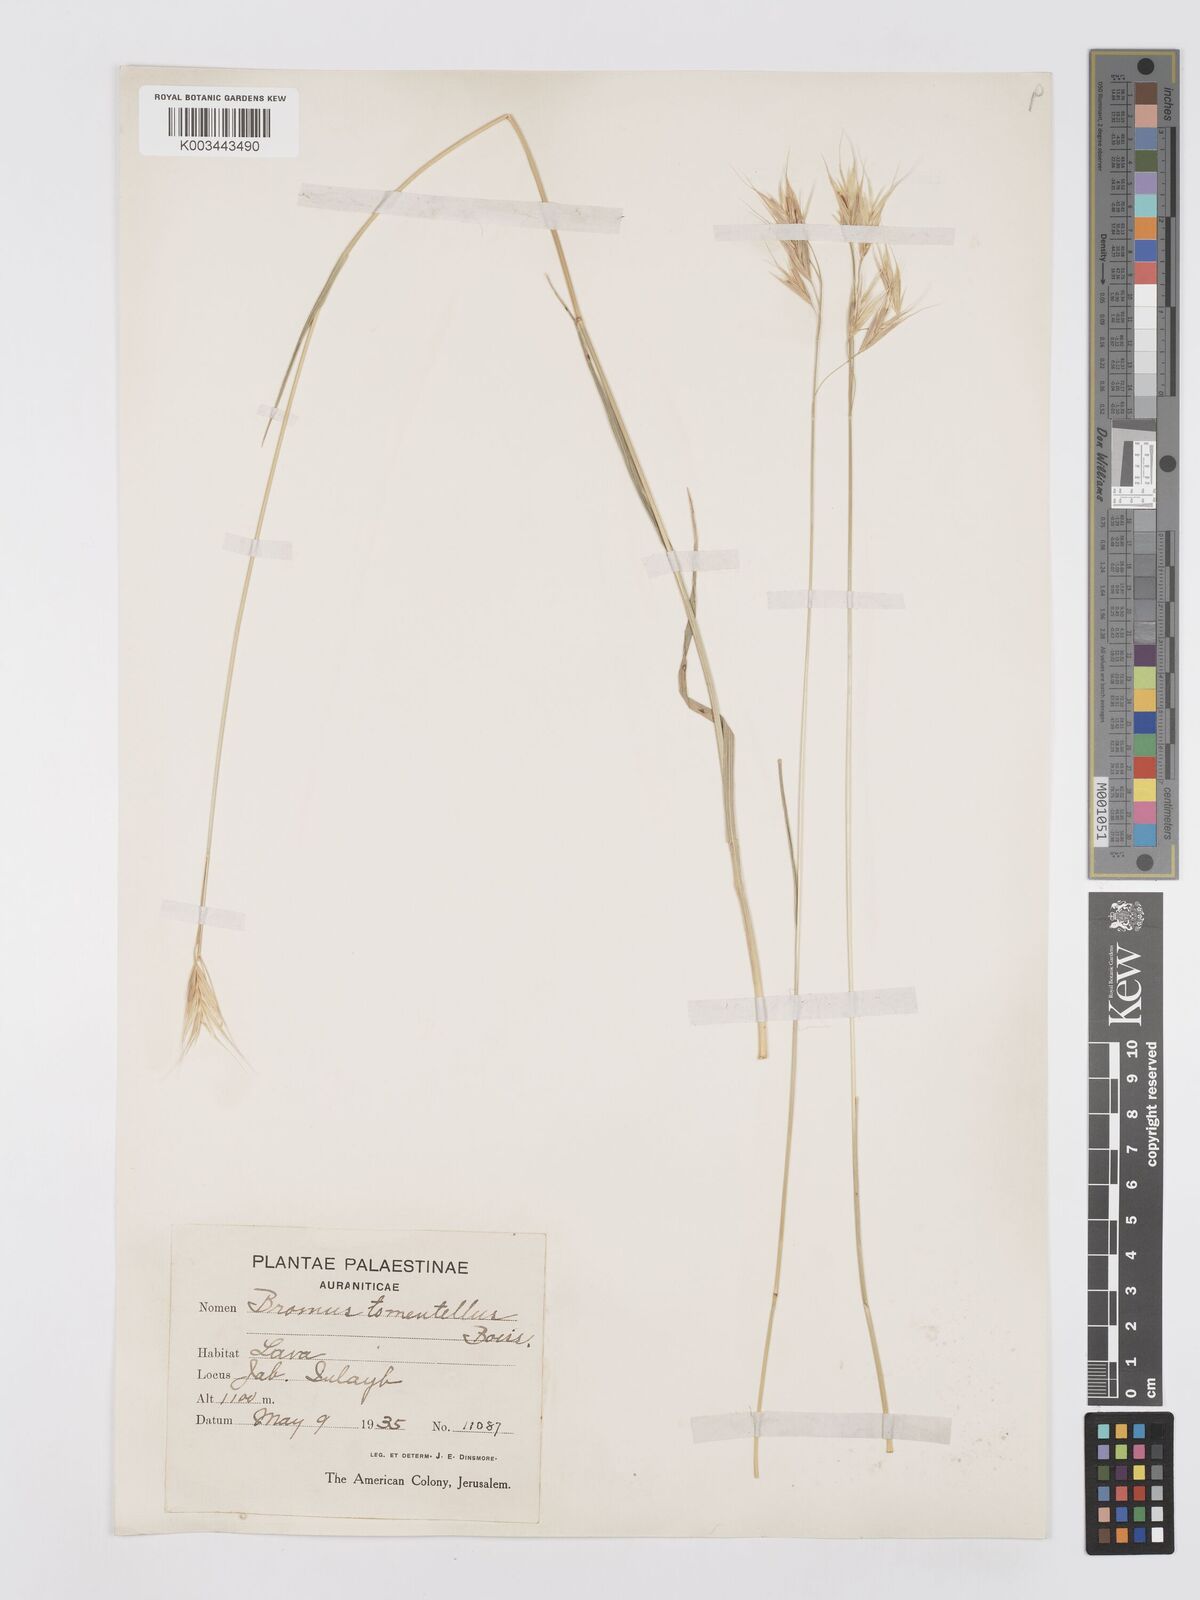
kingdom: Plantae
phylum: Tracheophyta
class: Liliopsida
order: Poales
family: Poaceae
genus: Bromus
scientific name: Bromus tomentellus
